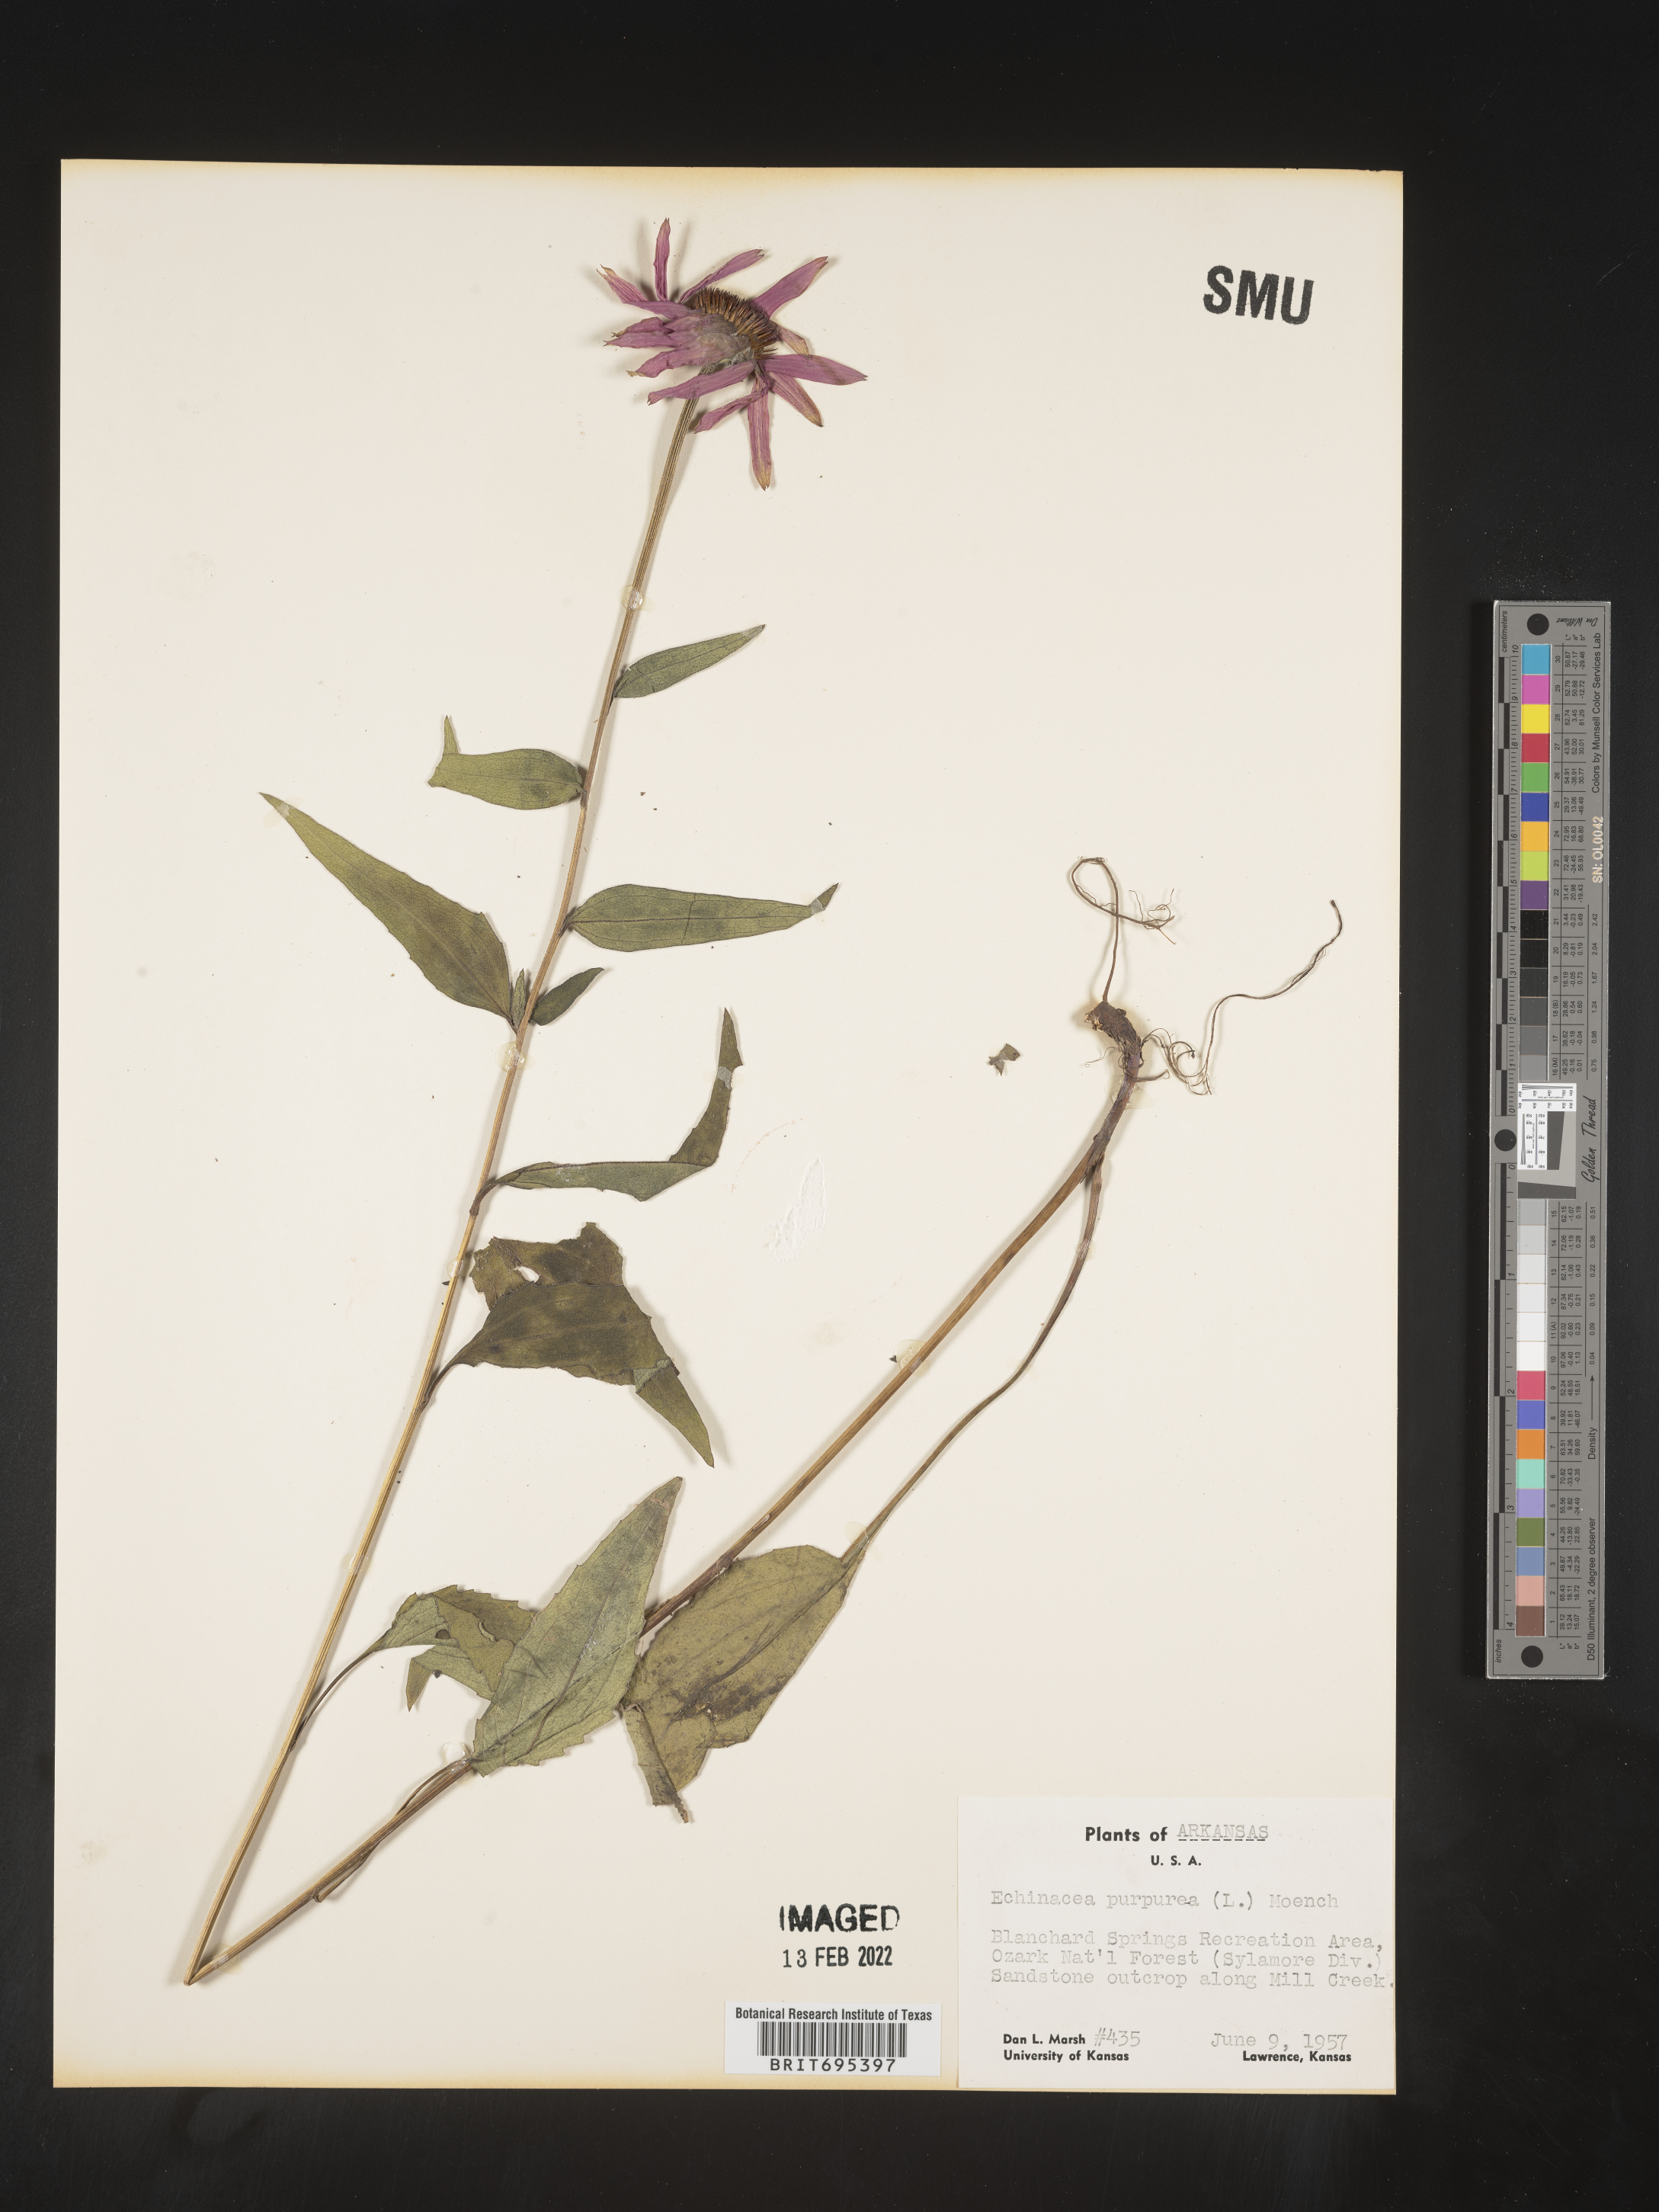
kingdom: Plantae
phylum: Tracheophyta
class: Magnoliopsida
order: Asterales
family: Asteraceae
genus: Echinacea
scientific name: Echinacea purpurea
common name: Broad-leaved purple coneflower
